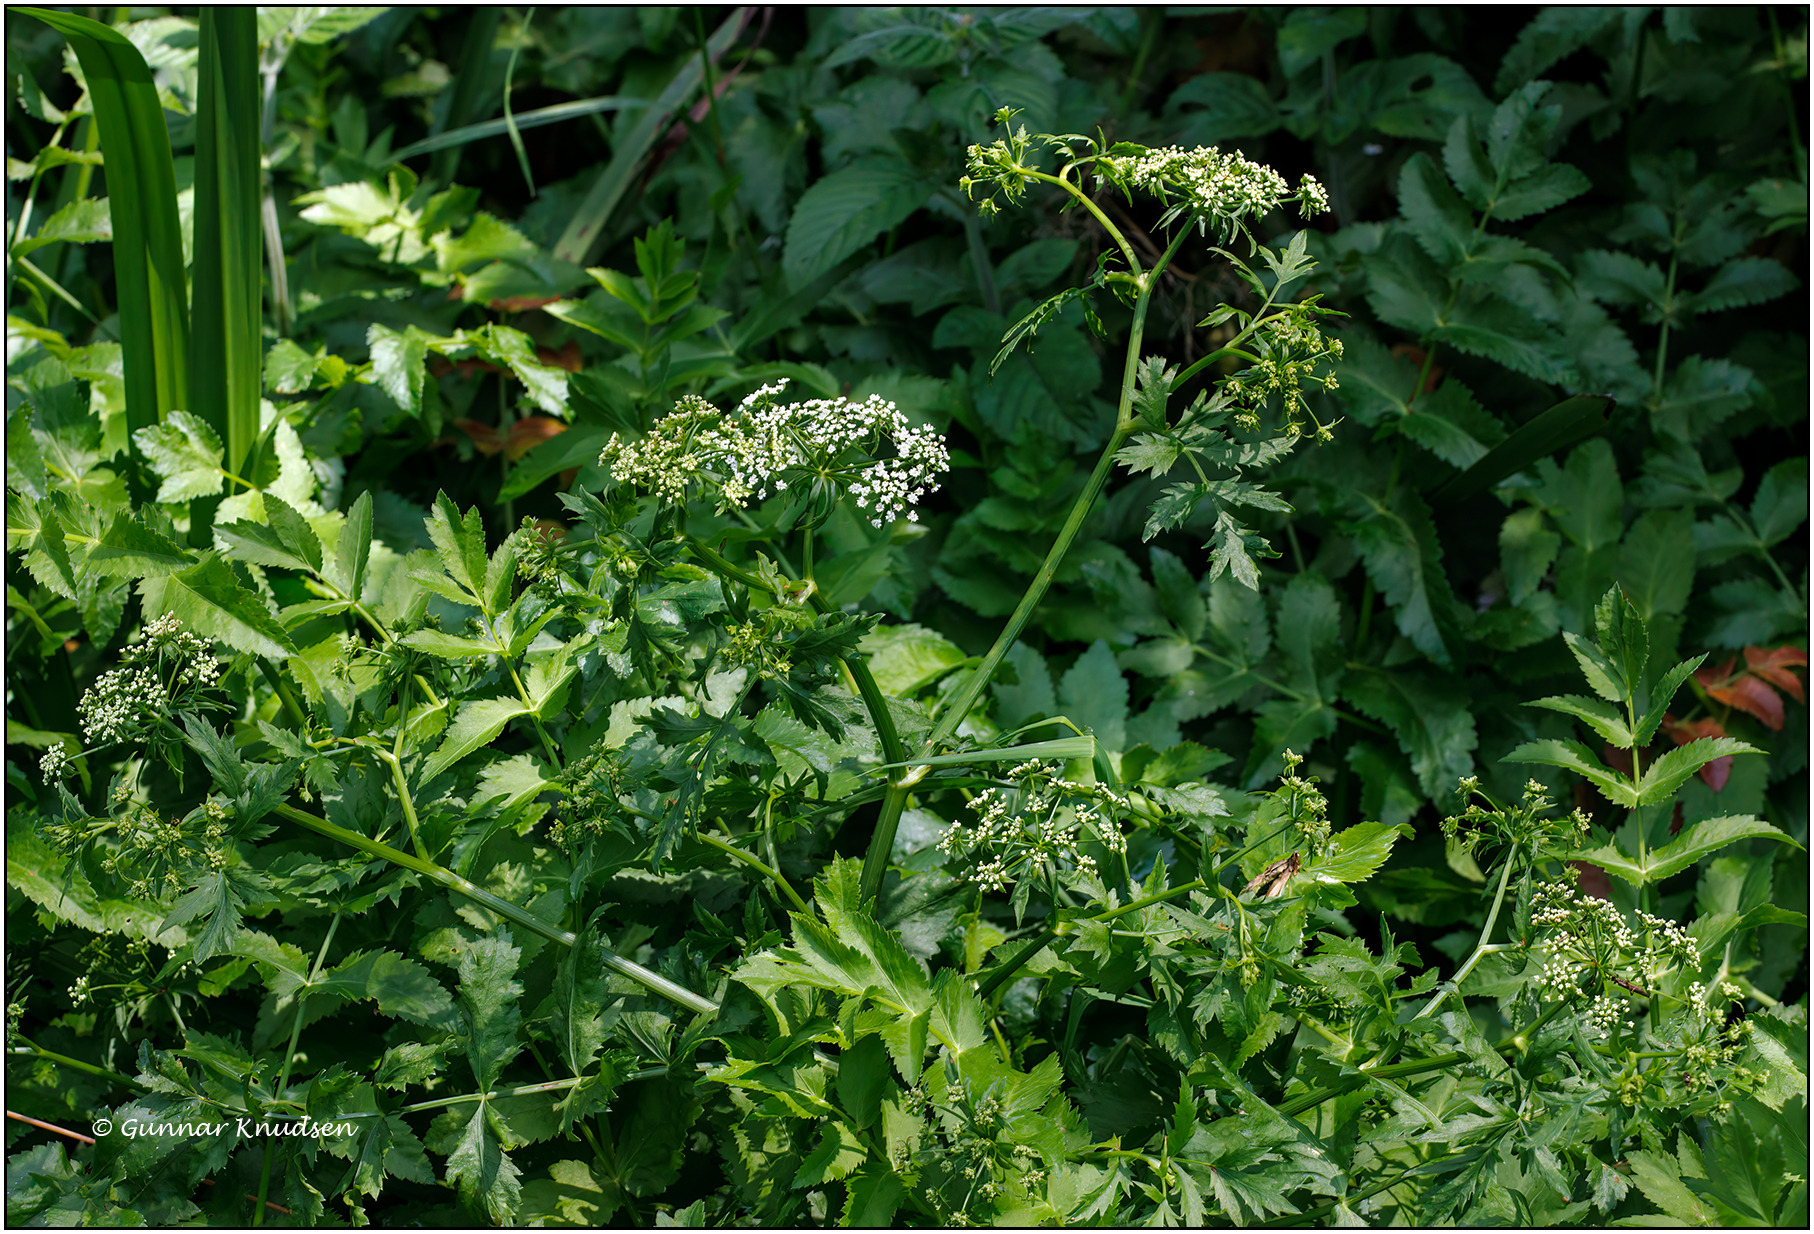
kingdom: Plantae
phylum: Tracheophyta
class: Magnoliopsida
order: Apiales
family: Apiaceae
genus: Berula
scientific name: Berula erecta
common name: Sideskærm
